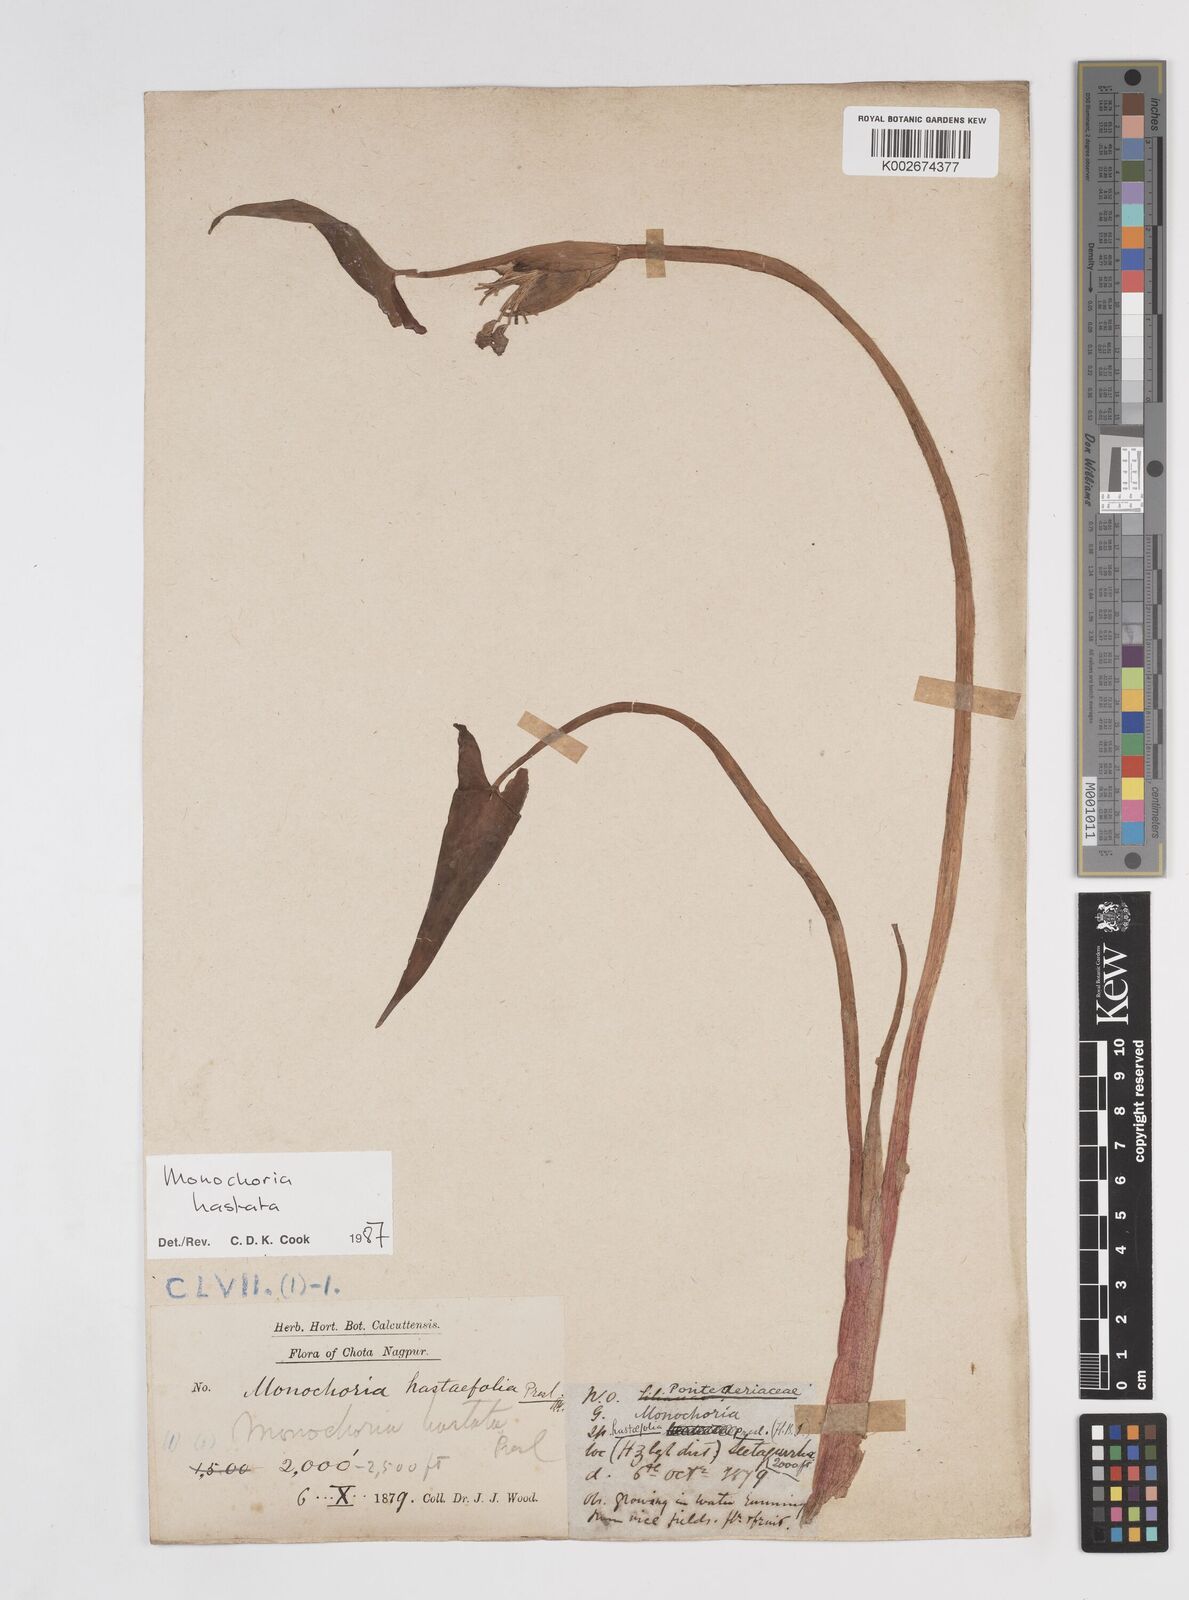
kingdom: Plantae
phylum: Tracheophyta
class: Liliopsida
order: Commelinales
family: Pontederiaceae
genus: Pontederia
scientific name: Pontederia hastata
